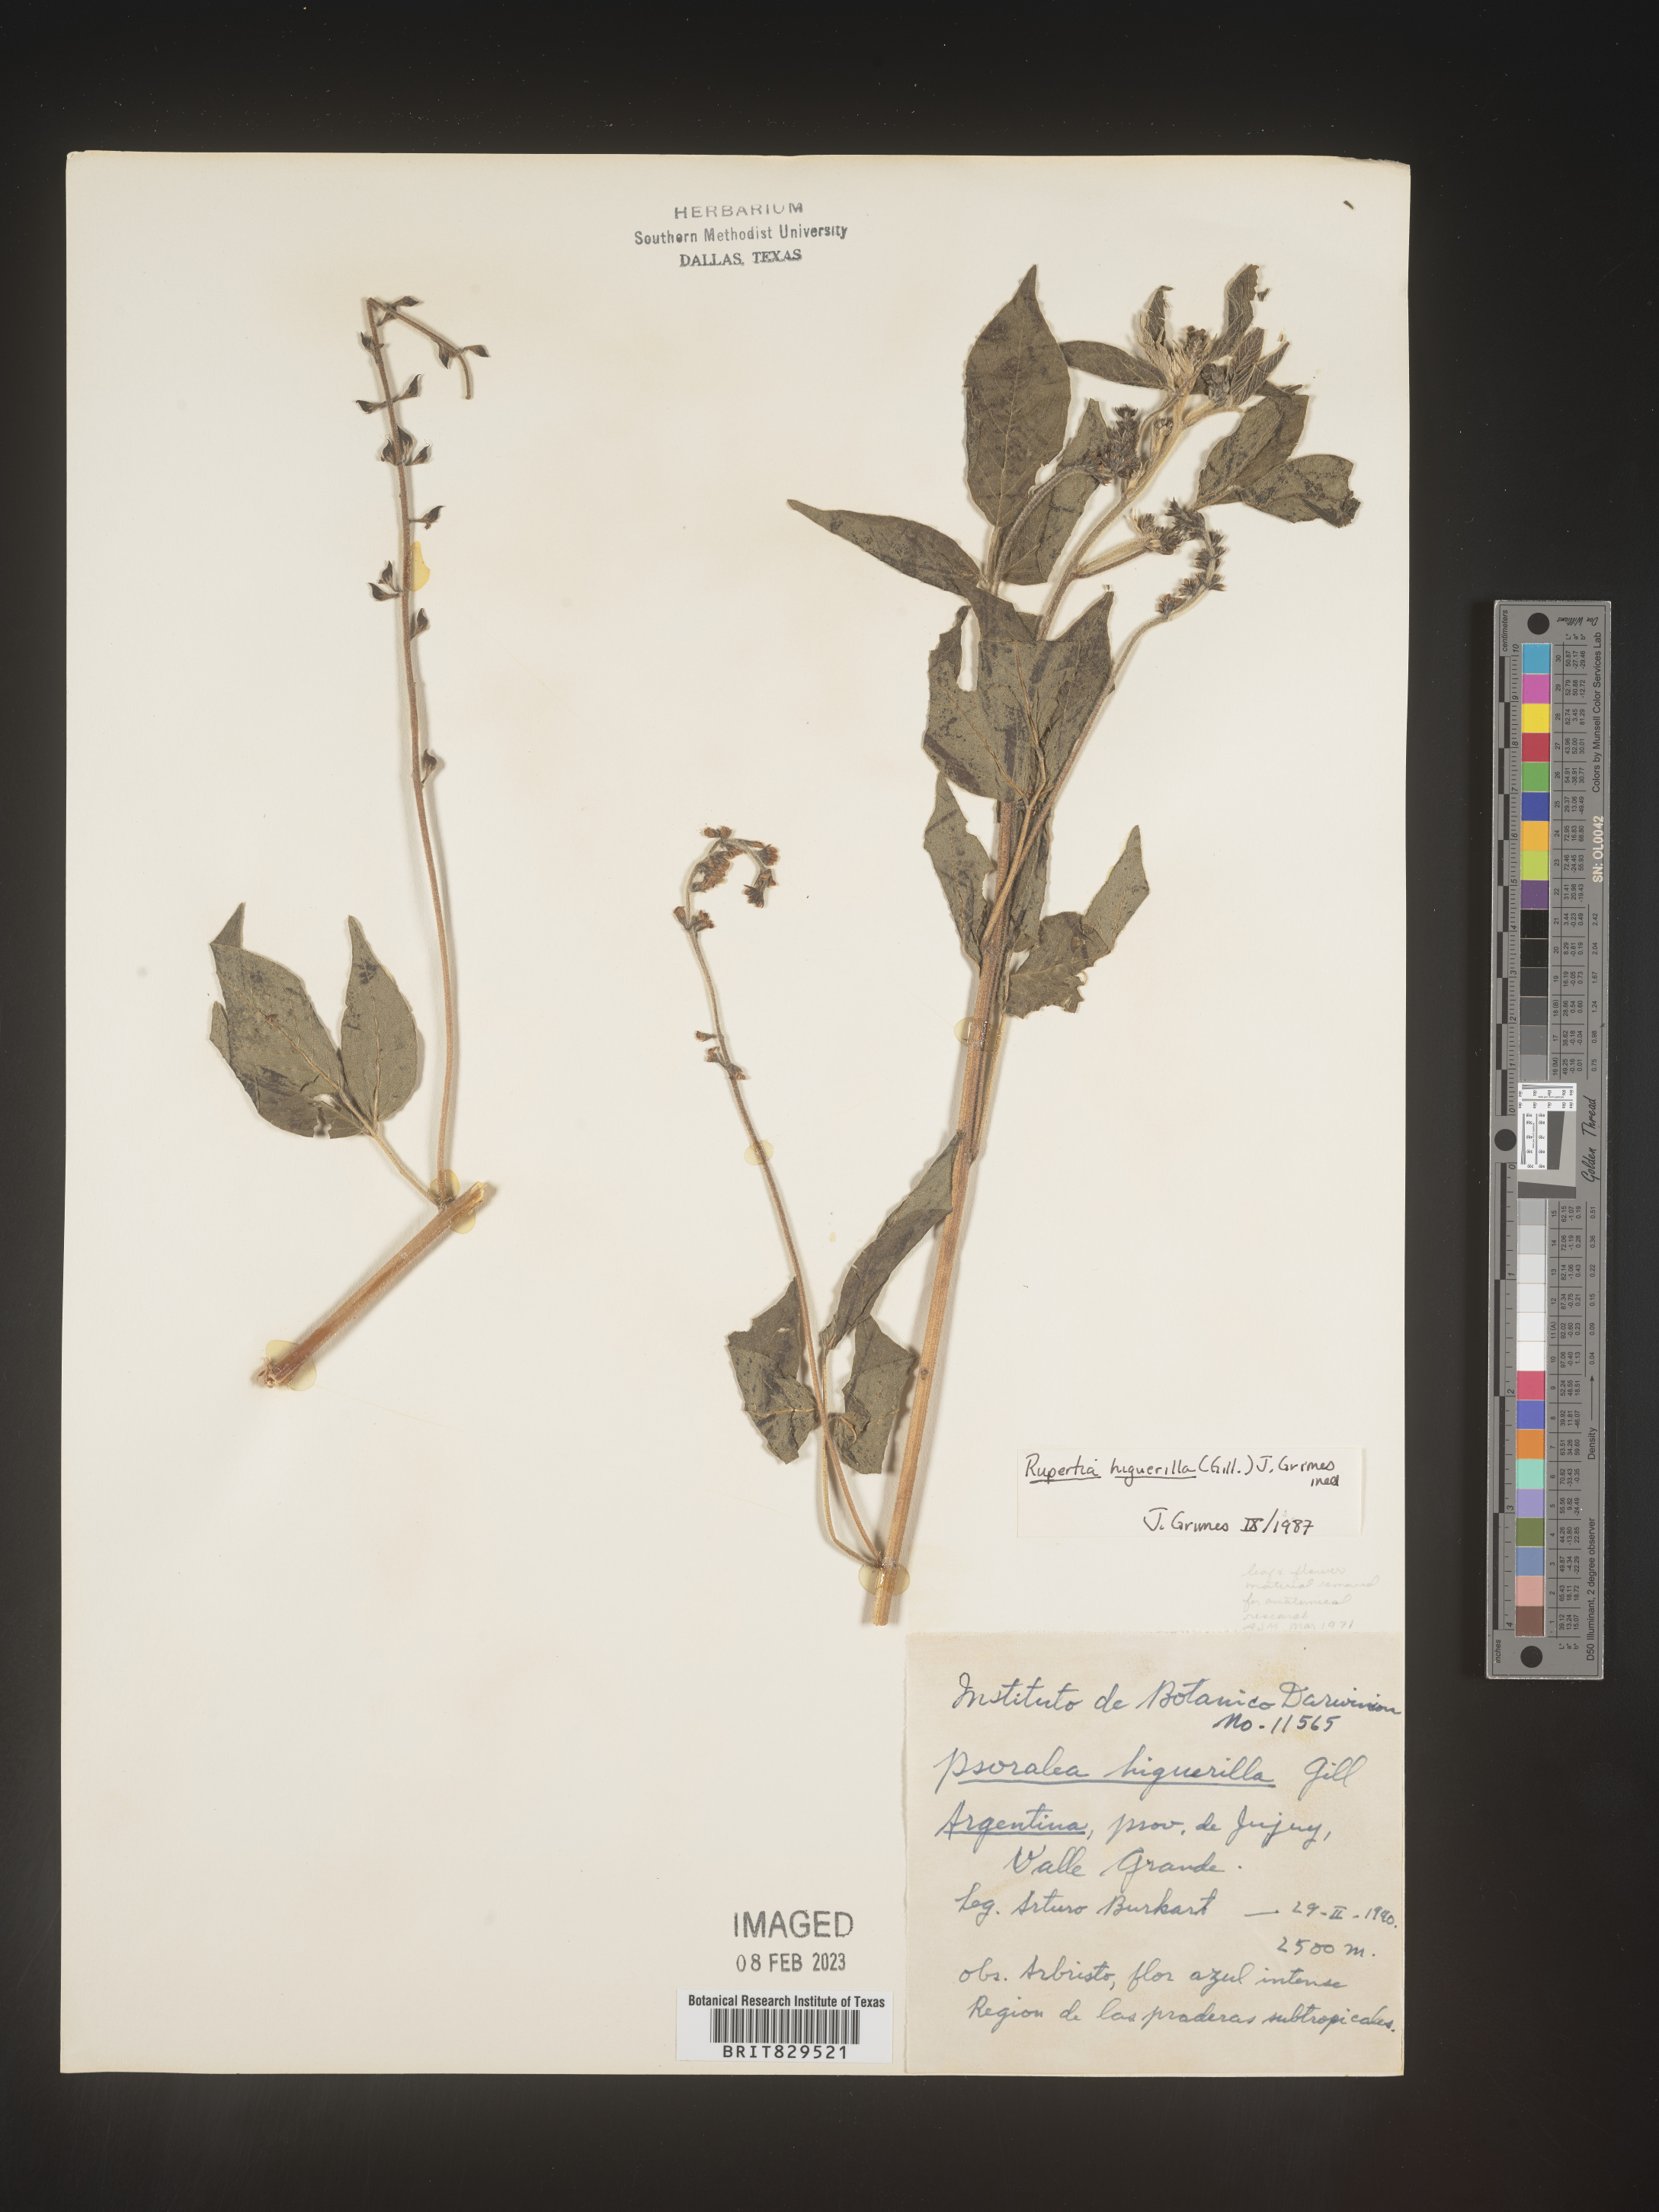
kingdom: Plantae
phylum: Tracheophyta
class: Magnoliopsida
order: Fabales
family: Fabaceae
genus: Psoralea
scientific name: Psoralea
